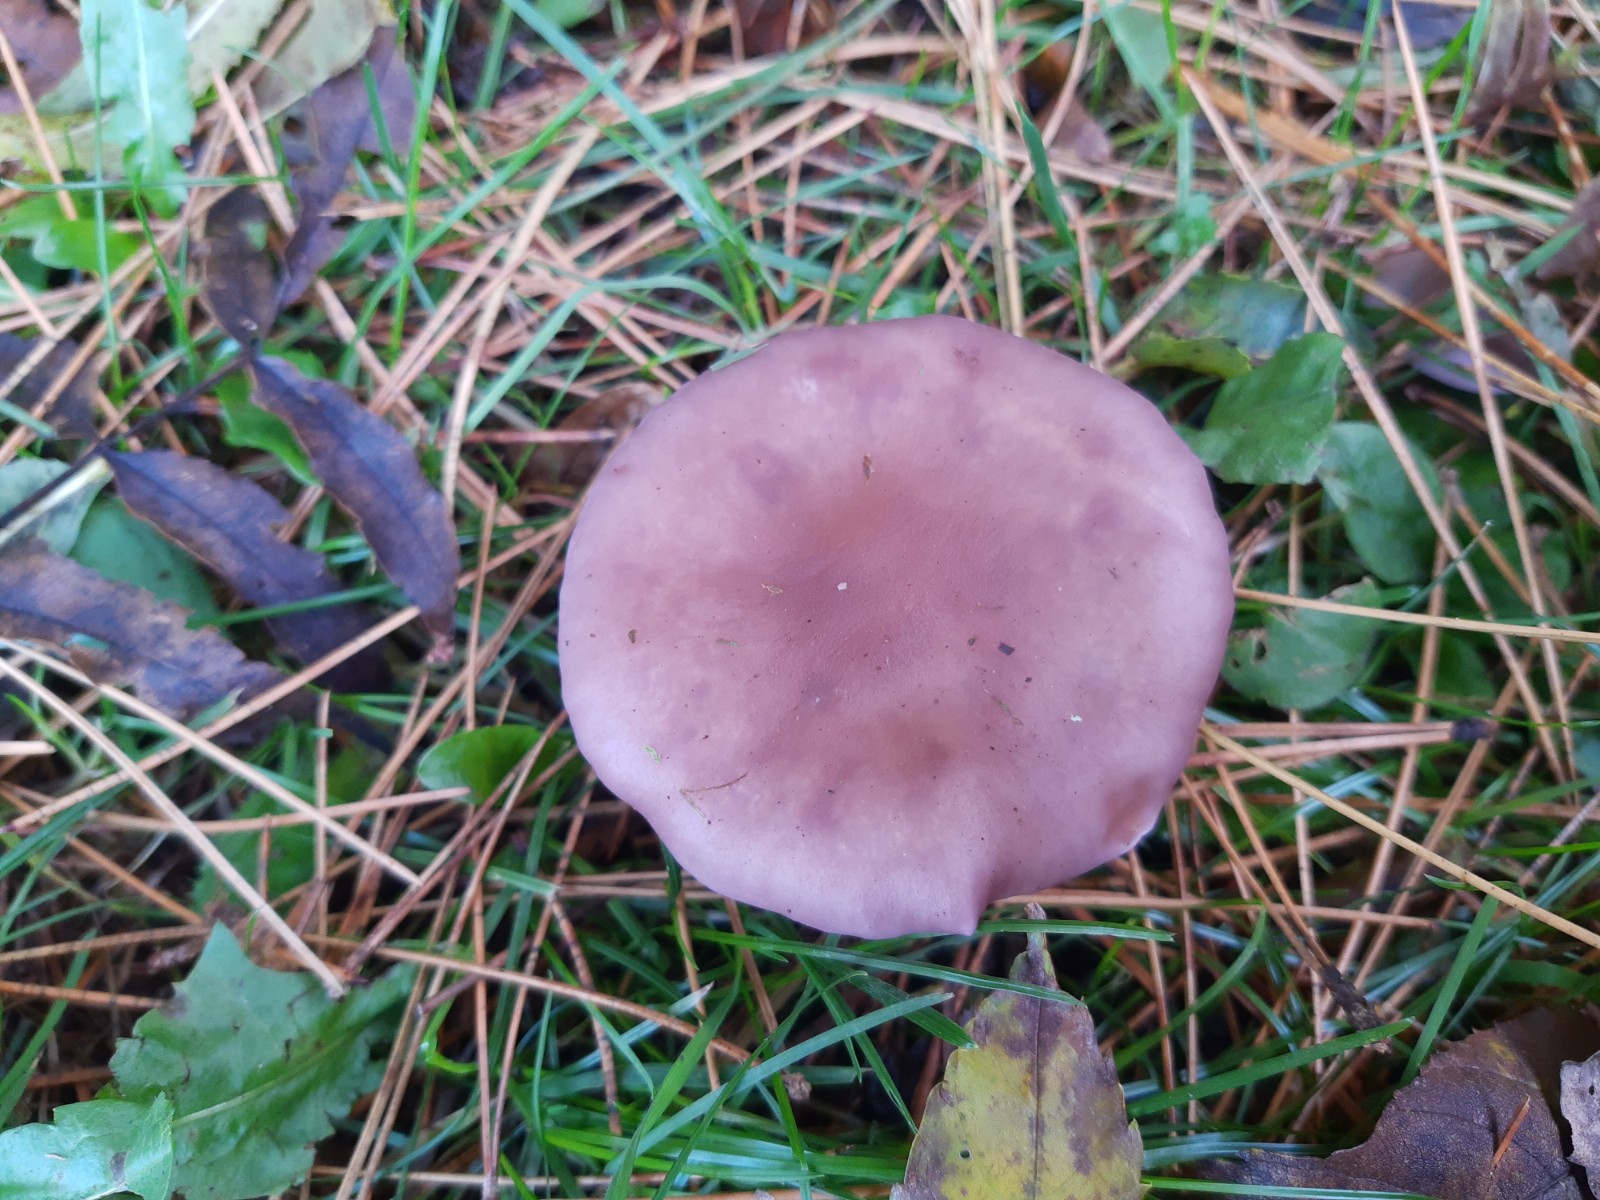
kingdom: Fungi
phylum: Basidiomycota
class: Agaricomycetes
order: Agaricales
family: Tricholomataceae
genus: Lepista
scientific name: Lepista lilacea
